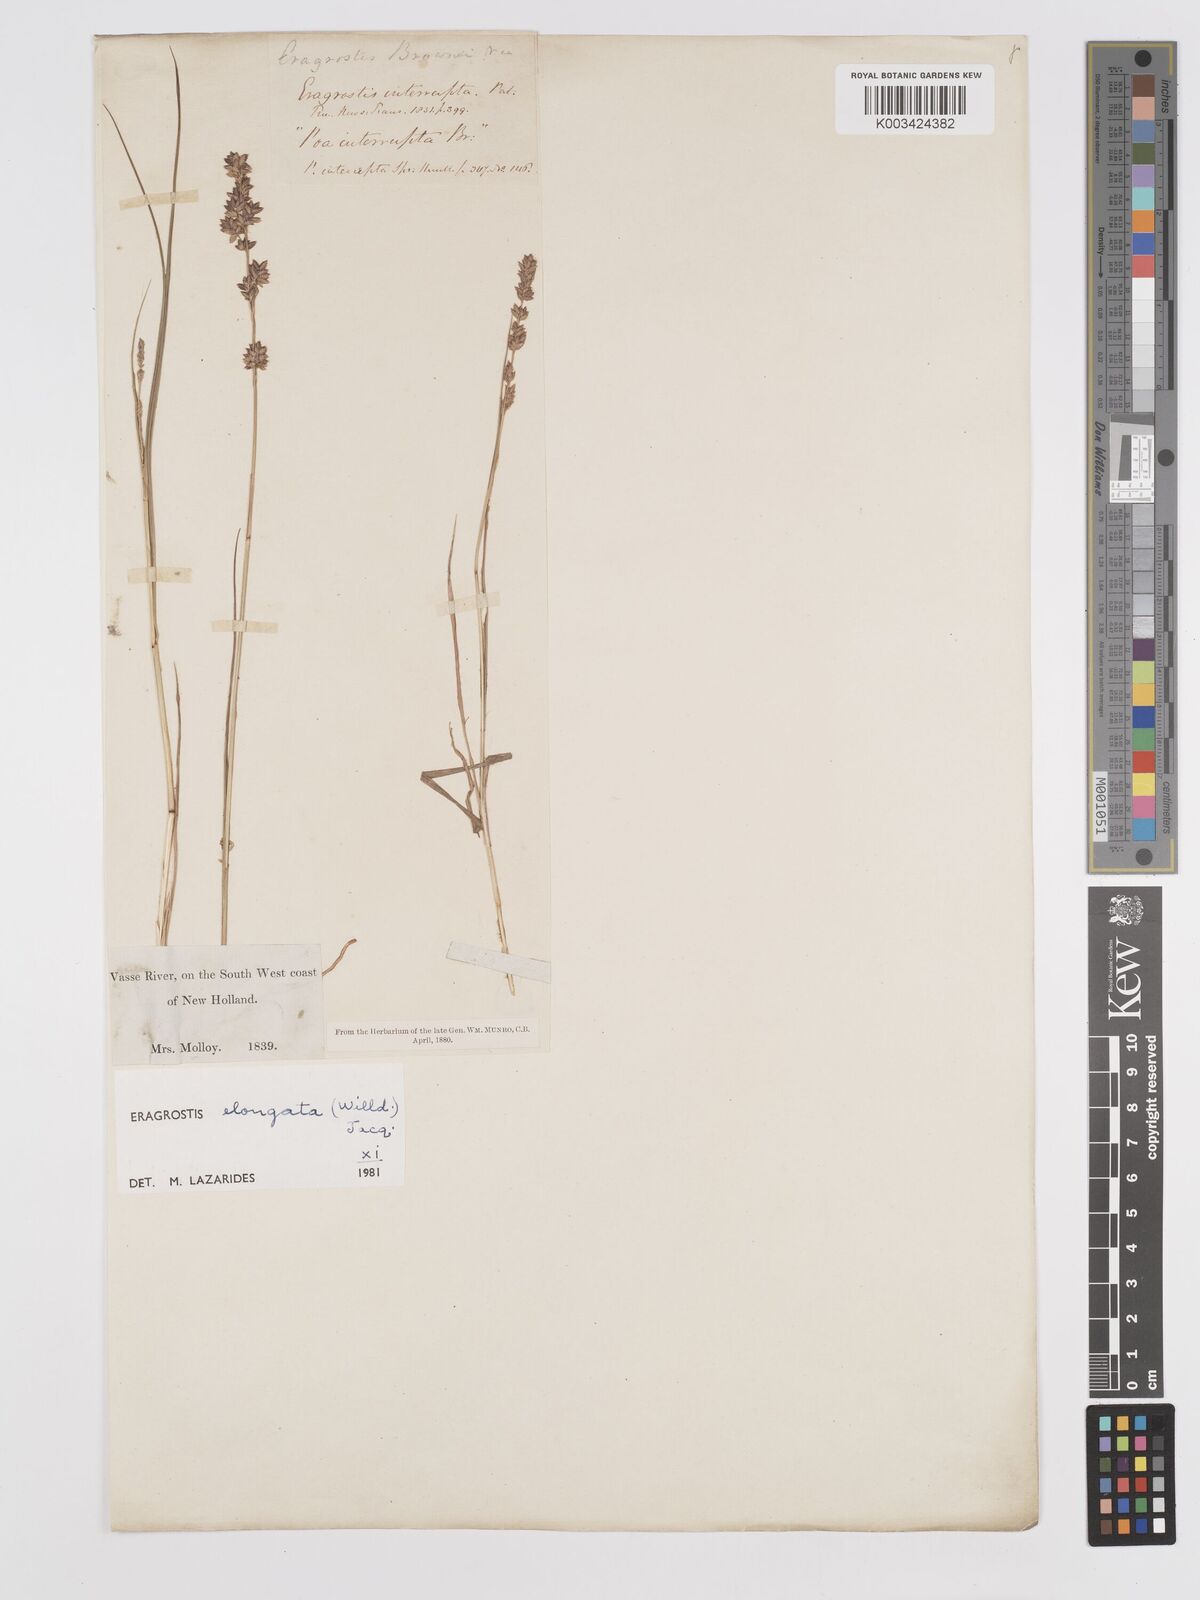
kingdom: Plantae
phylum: Tracheophyta
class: Liliopsida
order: Poales
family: Poaceae
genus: Eragrostis
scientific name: Eragrostis elongata
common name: Long lovegrass
